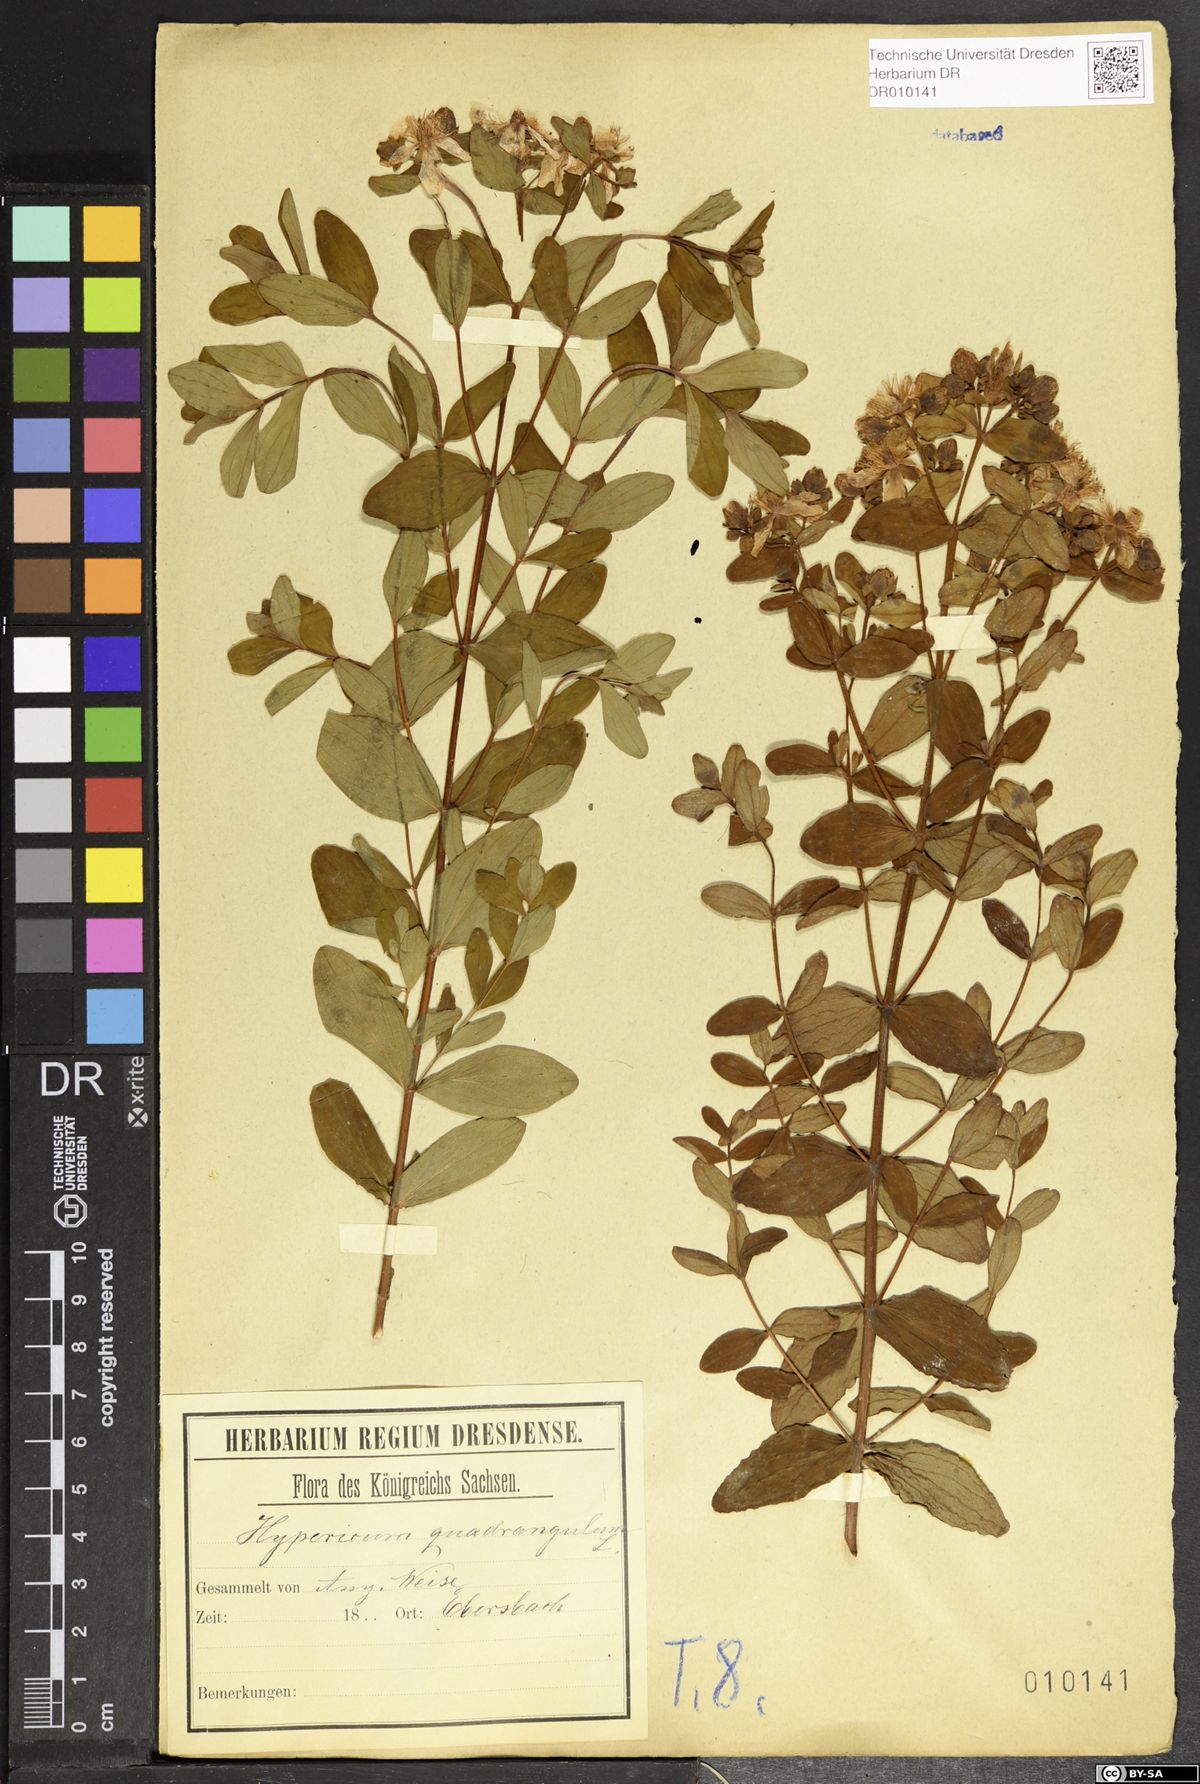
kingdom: Plantae
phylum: Tracheophyta
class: Magnoliopsida
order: Malpighiales
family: Hypericaceae
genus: Hypericum
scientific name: Hypericum maculatum
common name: Imperforate st. john's-wort
